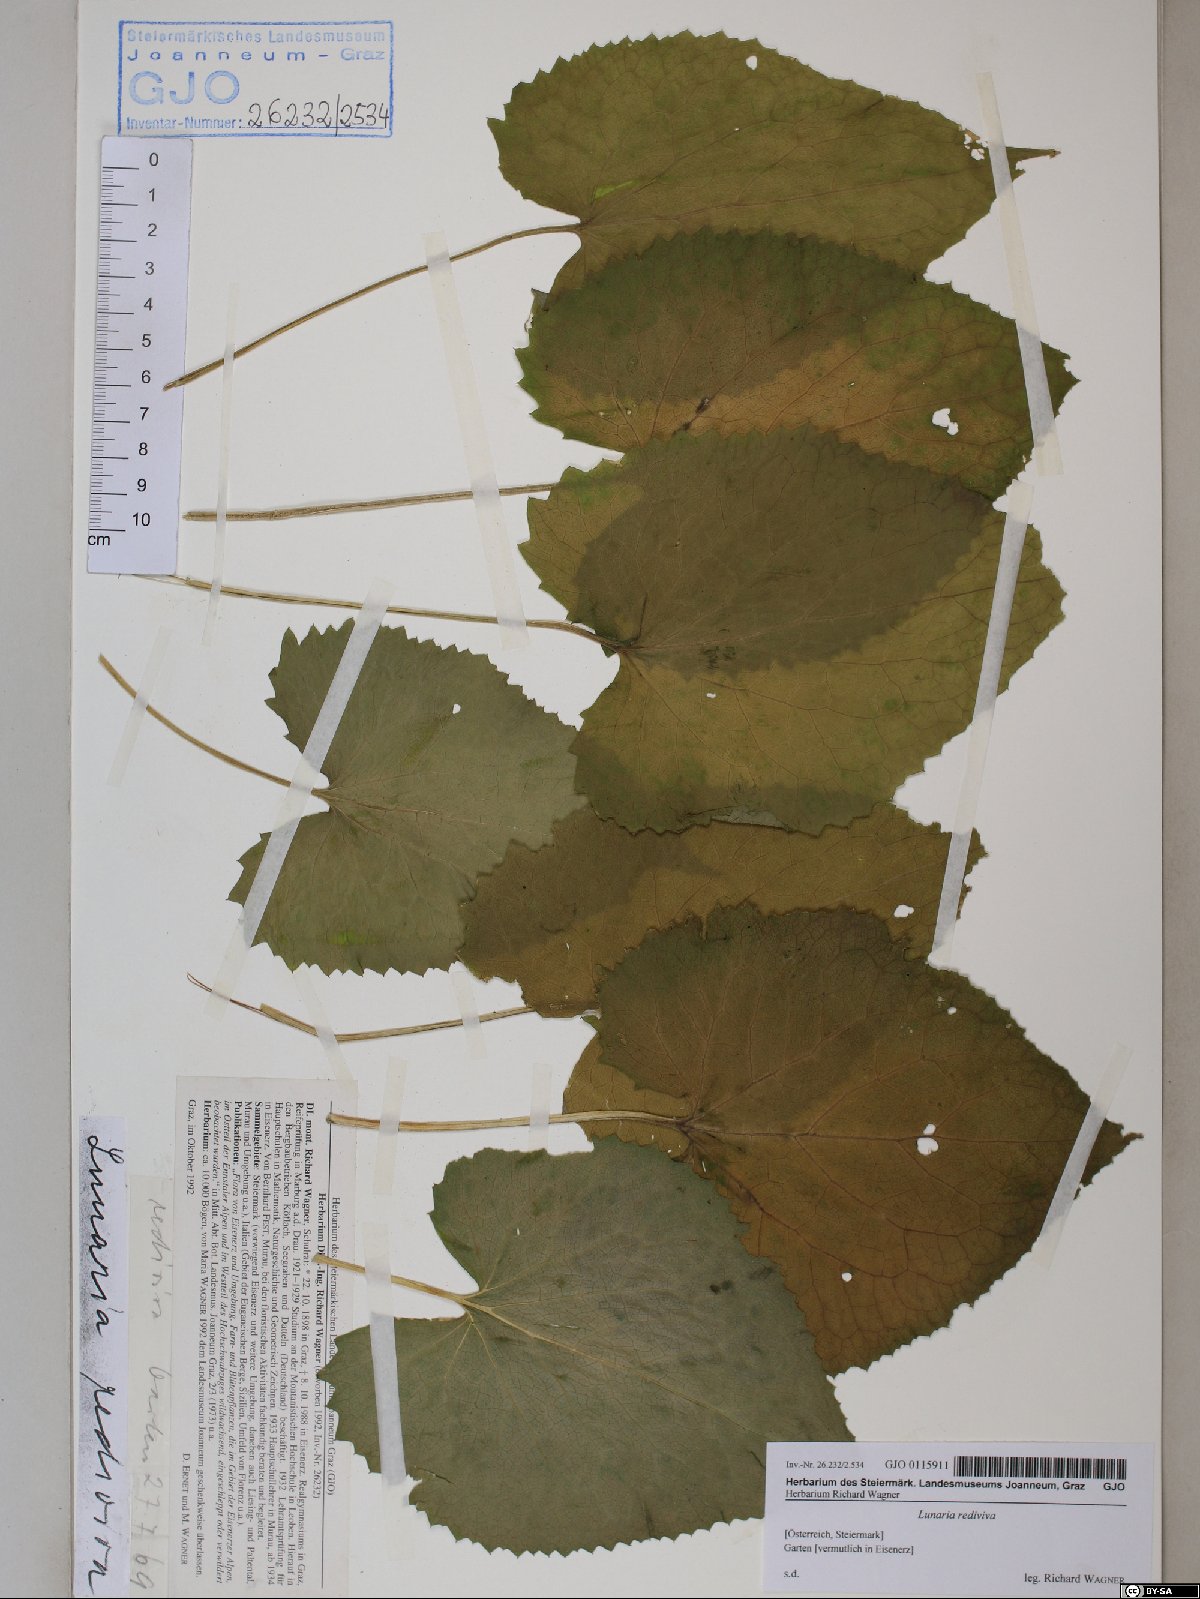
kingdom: Plantae
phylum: Tracheophyta
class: Magnoliopsida
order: Brassicales
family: Brassicaceae
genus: Lunaria
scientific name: Lunaria rediviva
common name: Perennial honesty
